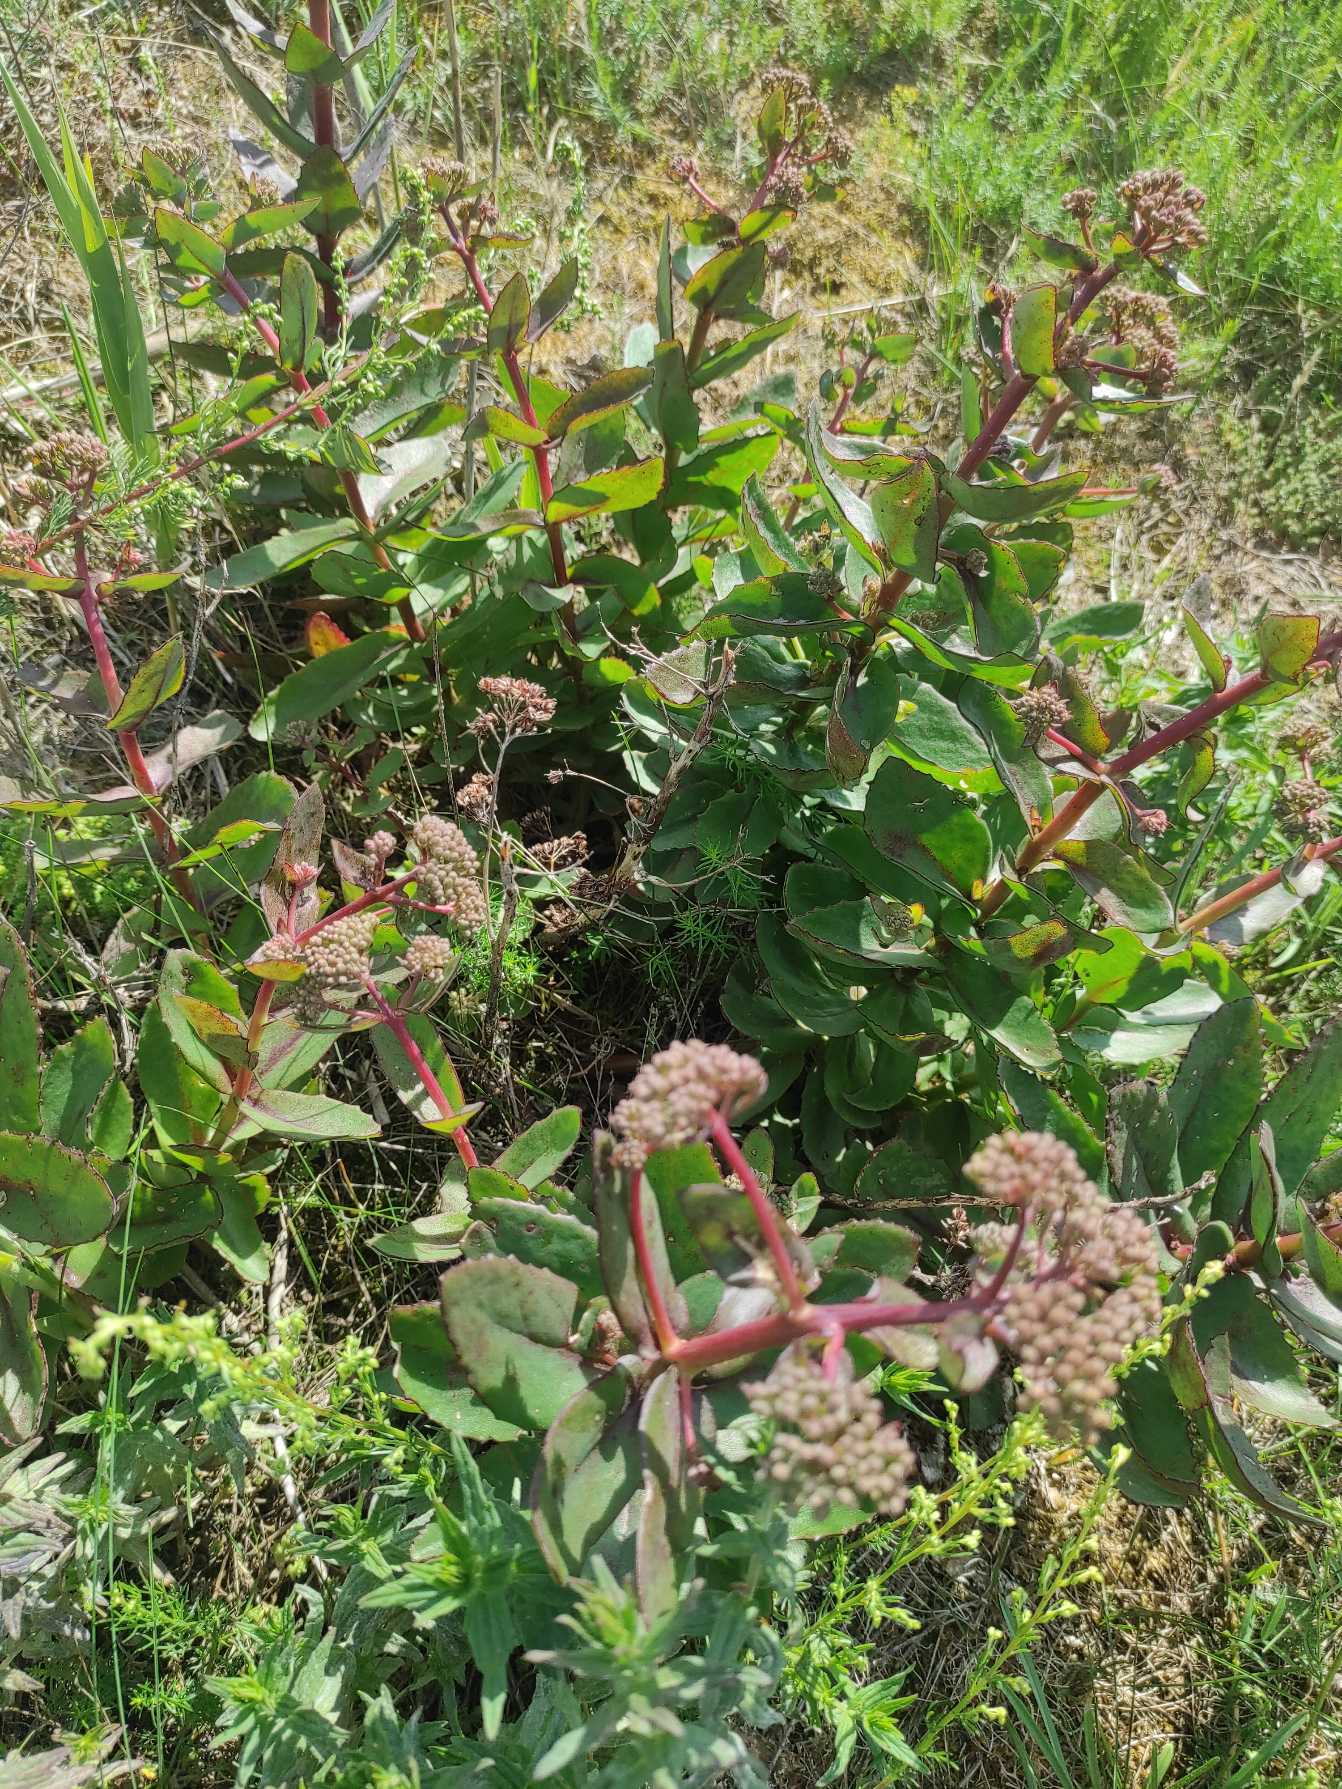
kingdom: Plantae
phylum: Tracheophyta
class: Magnoliopsida
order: Saxifragales
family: Crassulaceae
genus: Hylotelephium
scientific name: Hylotelephium maximum
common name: Almindelig sankthansurt
